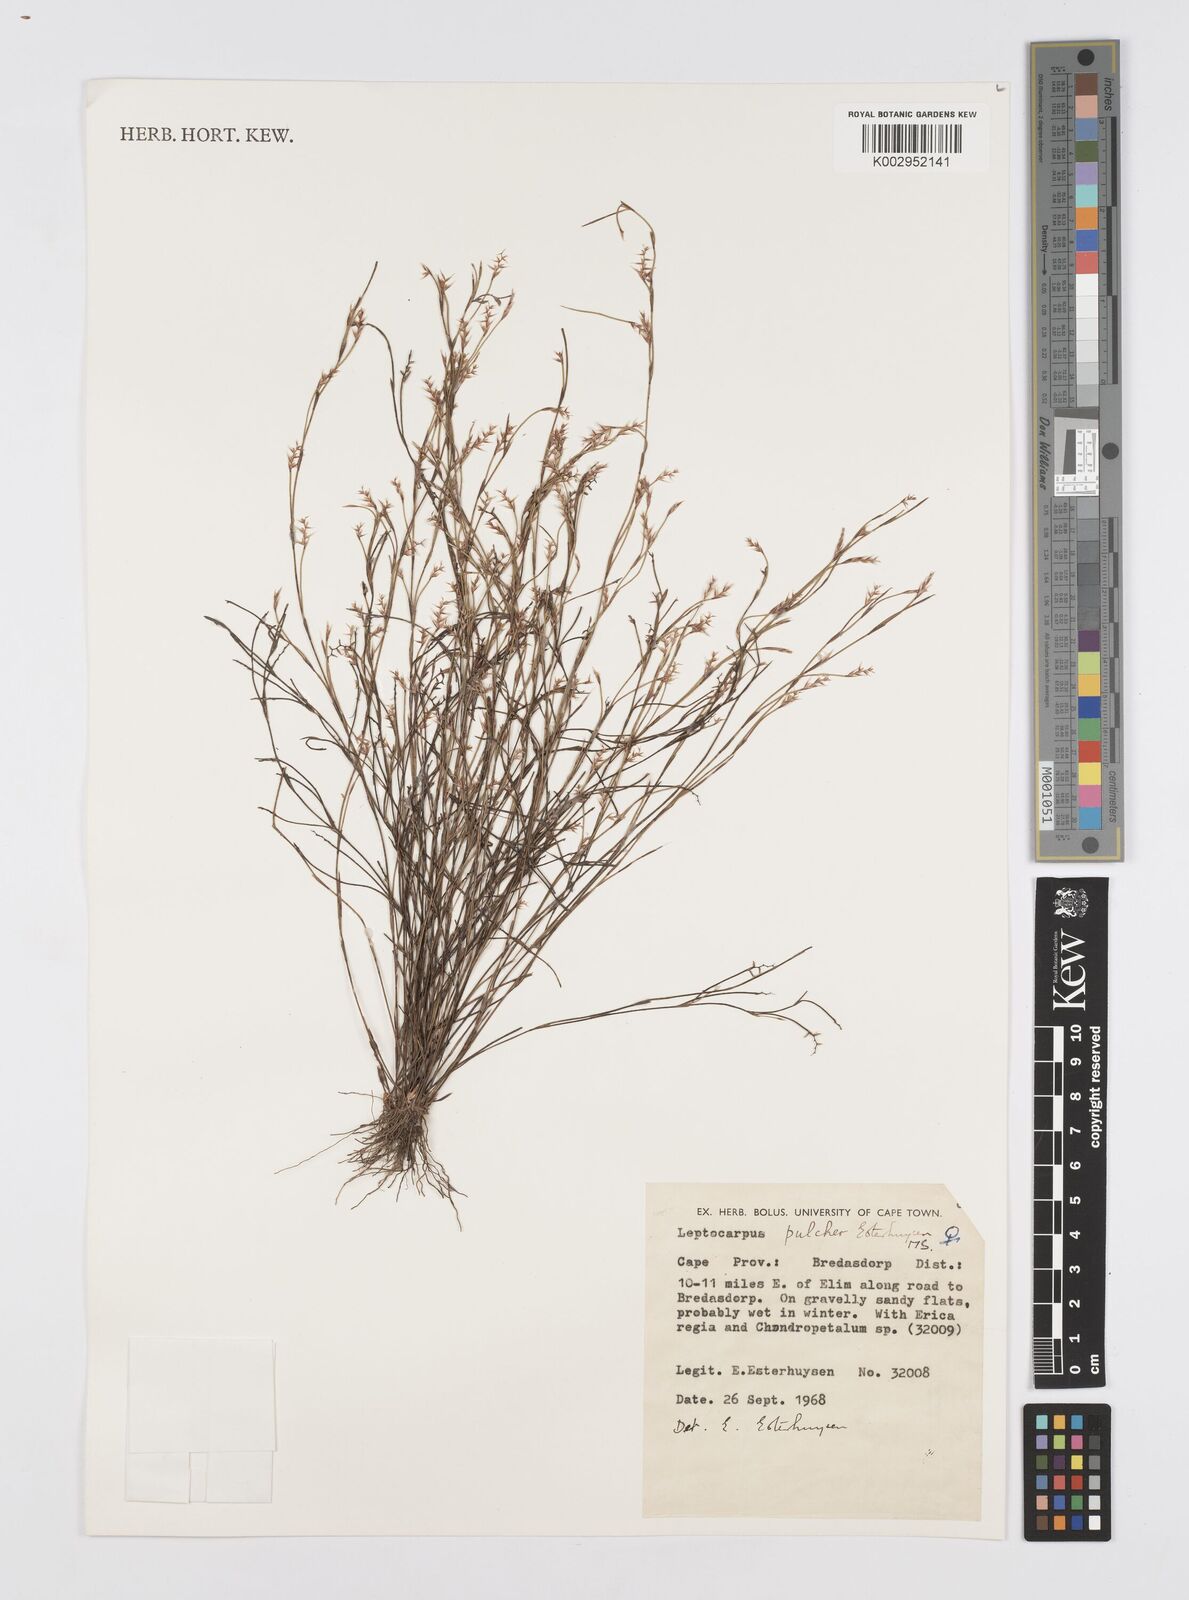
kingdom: Plantae
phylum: Tracheophyta
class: Liliopsida
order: Poales
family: Restionaceae
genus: Restio
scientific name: Restio pulcher
